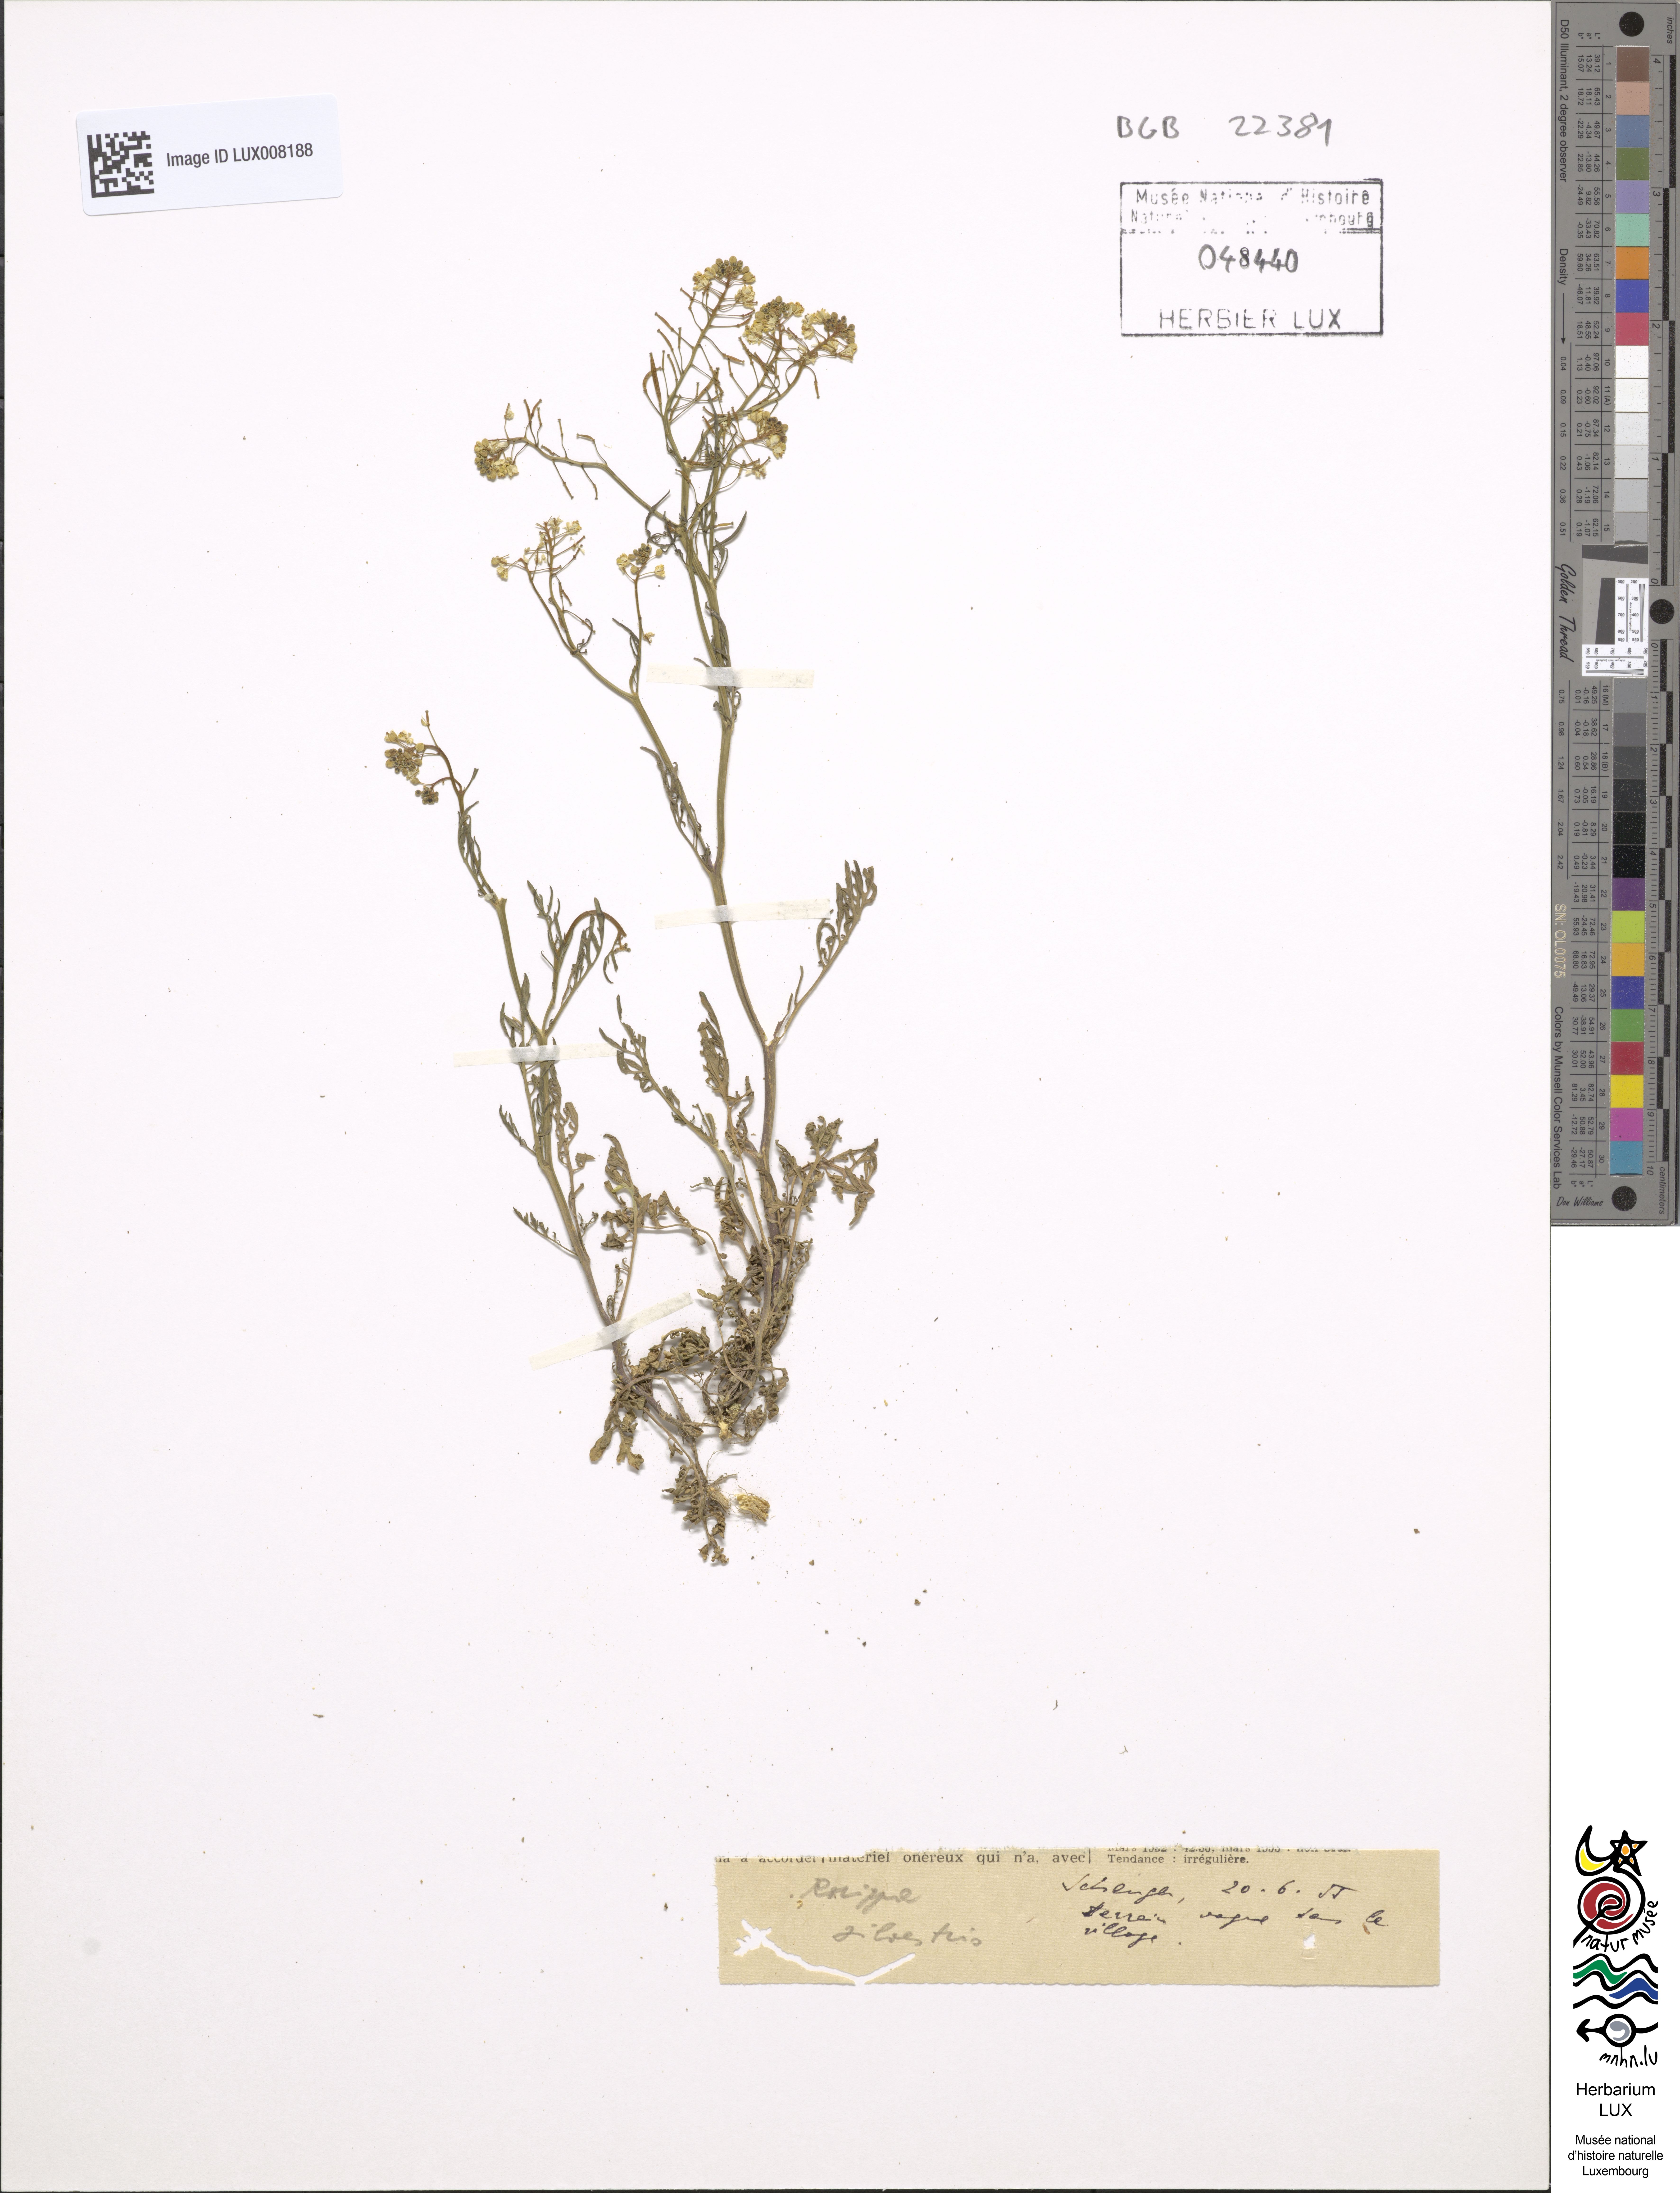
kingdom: Plantae
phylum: Tracheophyta
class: Magnoliopsida
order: Brassicales
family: Brassicaceae
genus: Rorippa
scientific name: Rorippa sylvestris
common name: Creeping yellowcress
